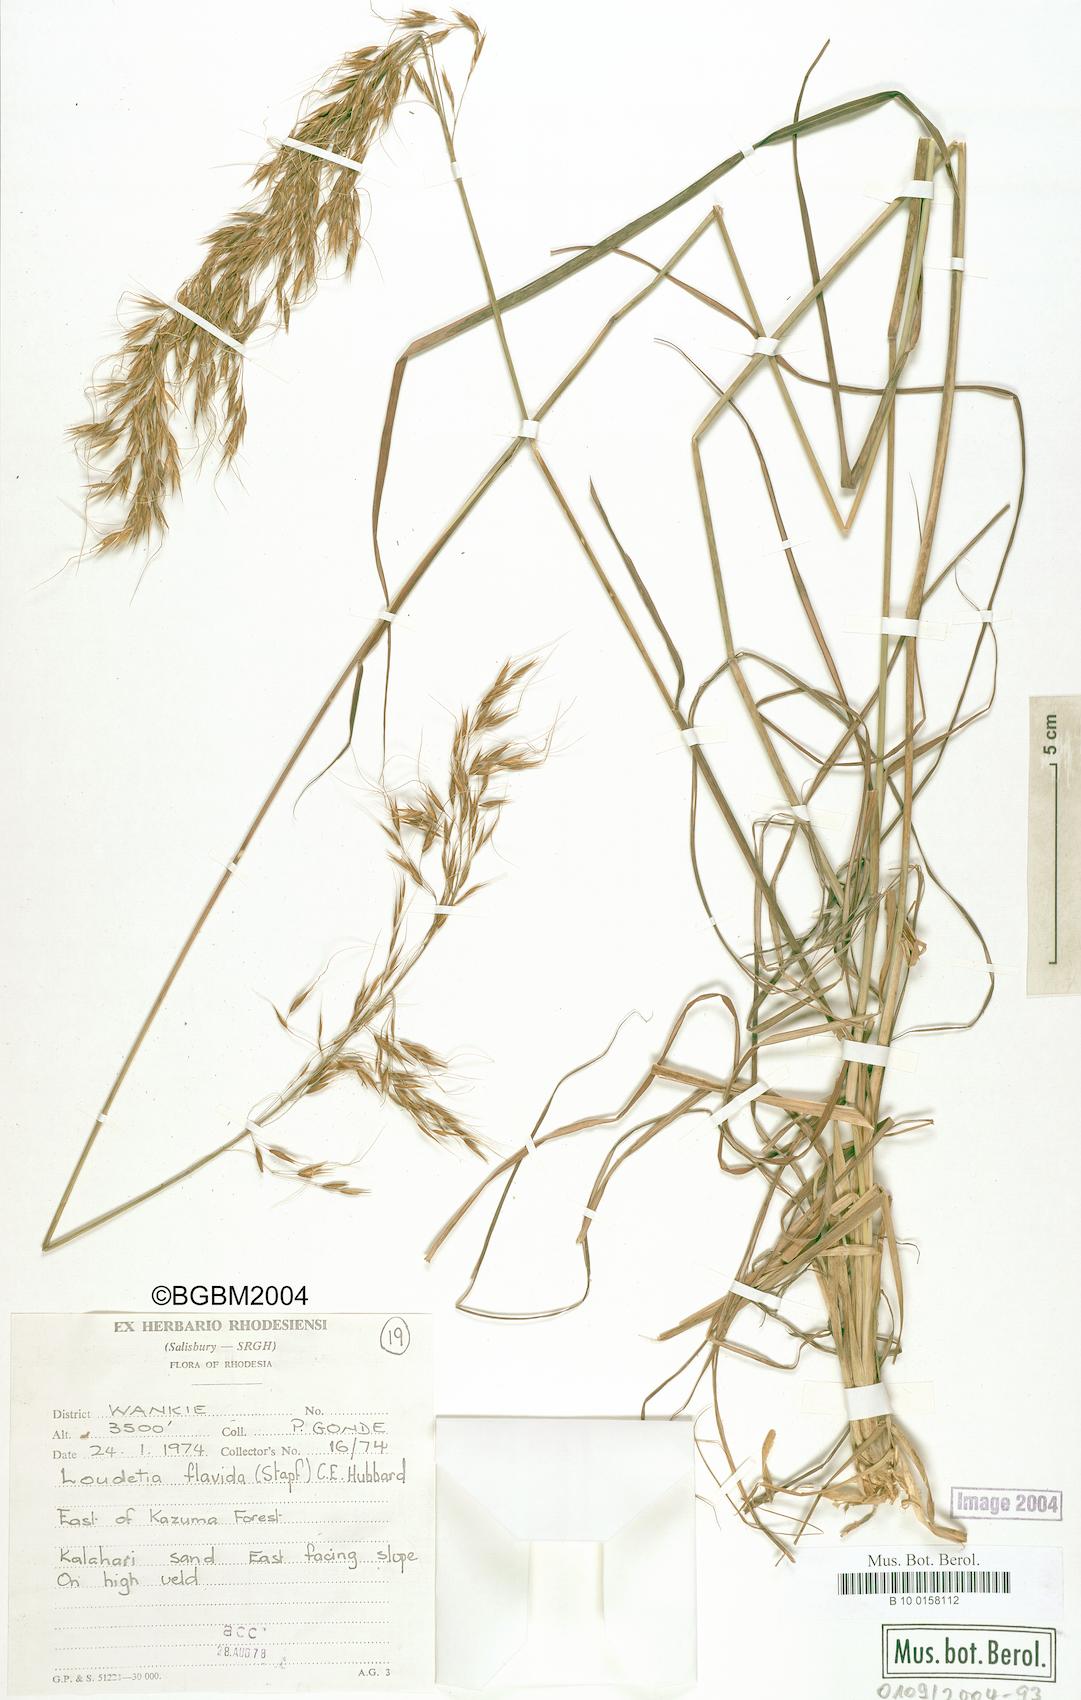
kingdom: Plantae
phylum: Tracheophyta
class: Liliopsida
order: Poales
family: Poaceae
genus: Loudetia
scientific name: Loudetia flavida
